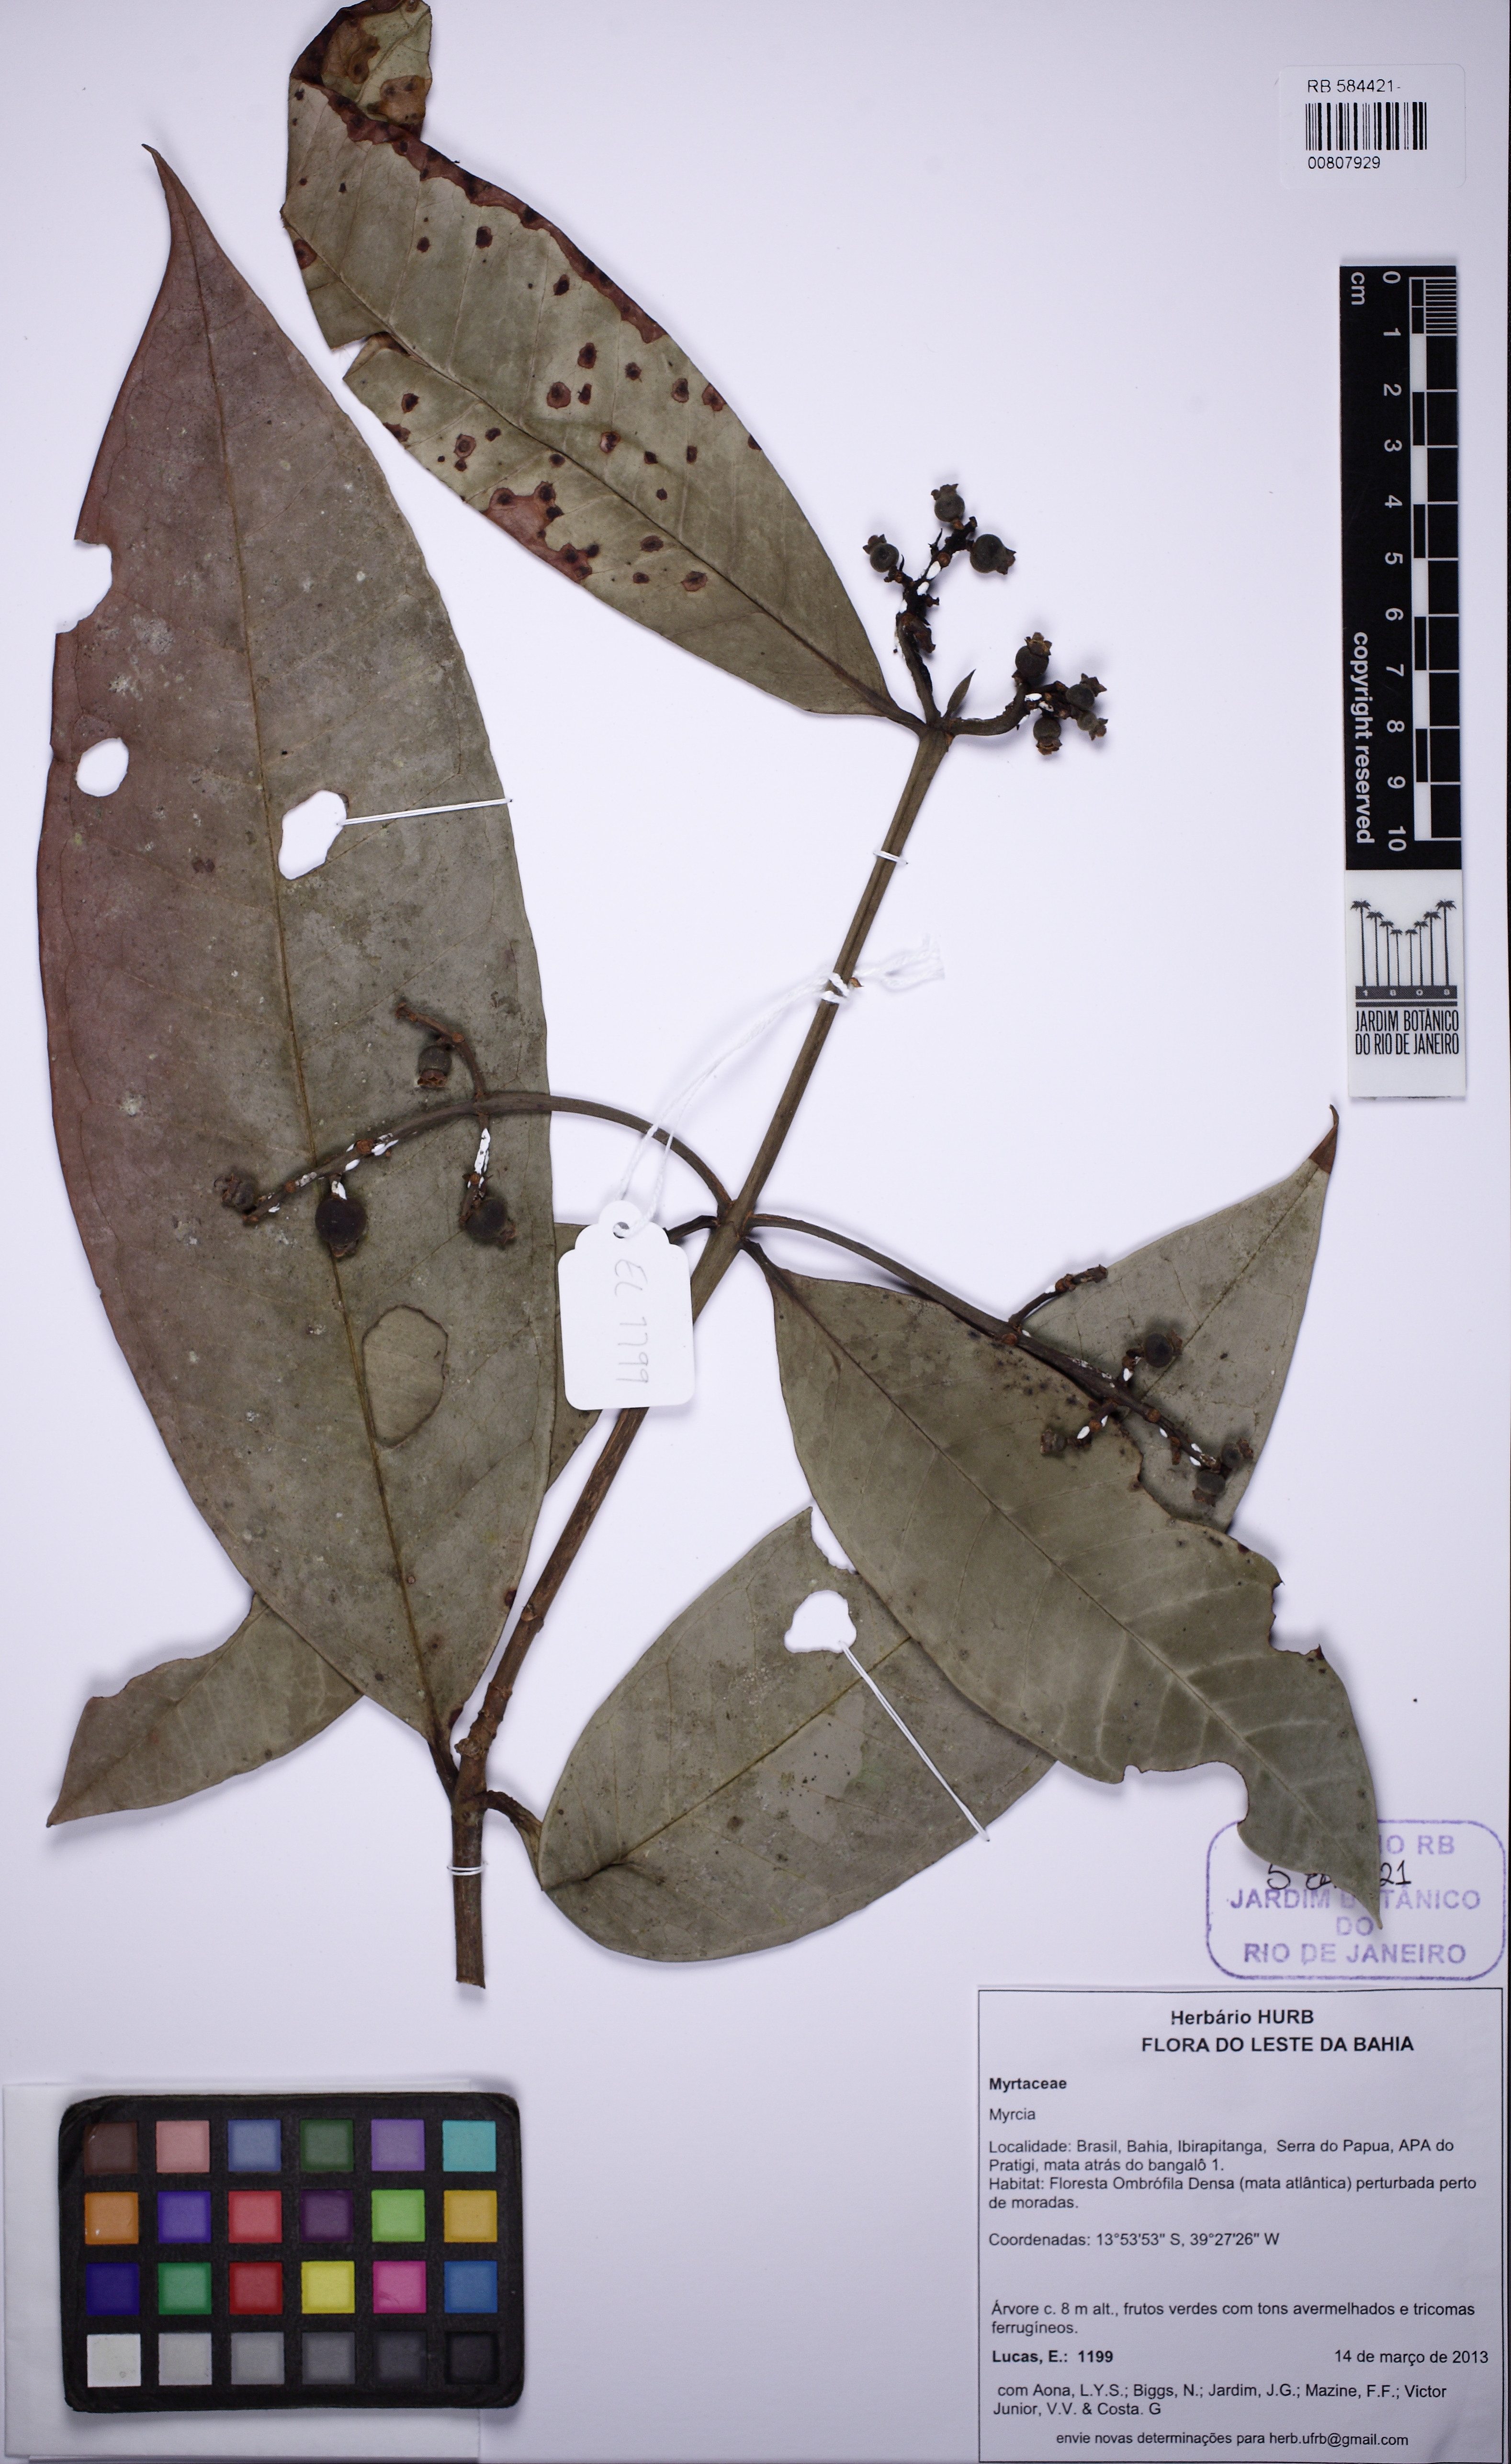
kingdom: Plantae
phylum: Tracheophyta
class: Magnoliopsida
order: Myrtales
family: Myrtaceae
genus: Myrcia
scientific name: Myrcia springiana
